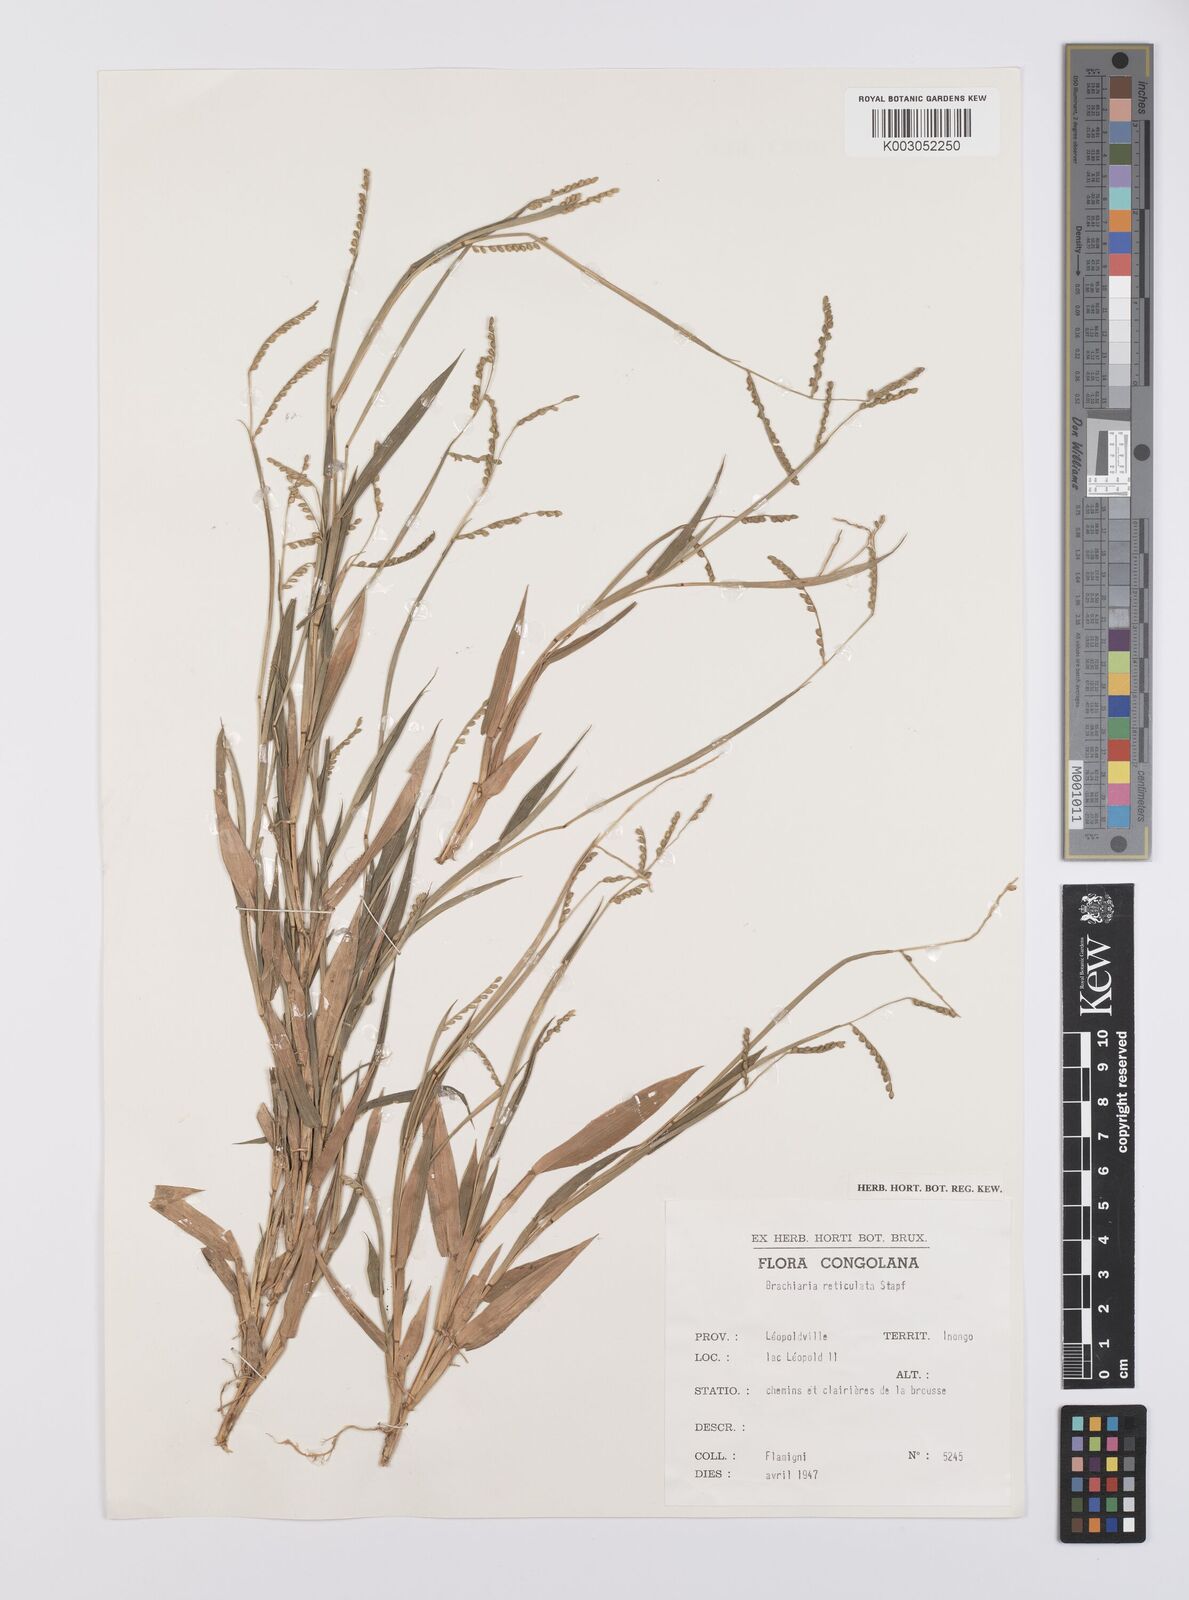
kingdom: Plantae
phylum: Tracheophyta
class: Liliopsida
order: Poales
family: Poaceae
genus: Urochloa
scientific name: Urochloa reticulata
